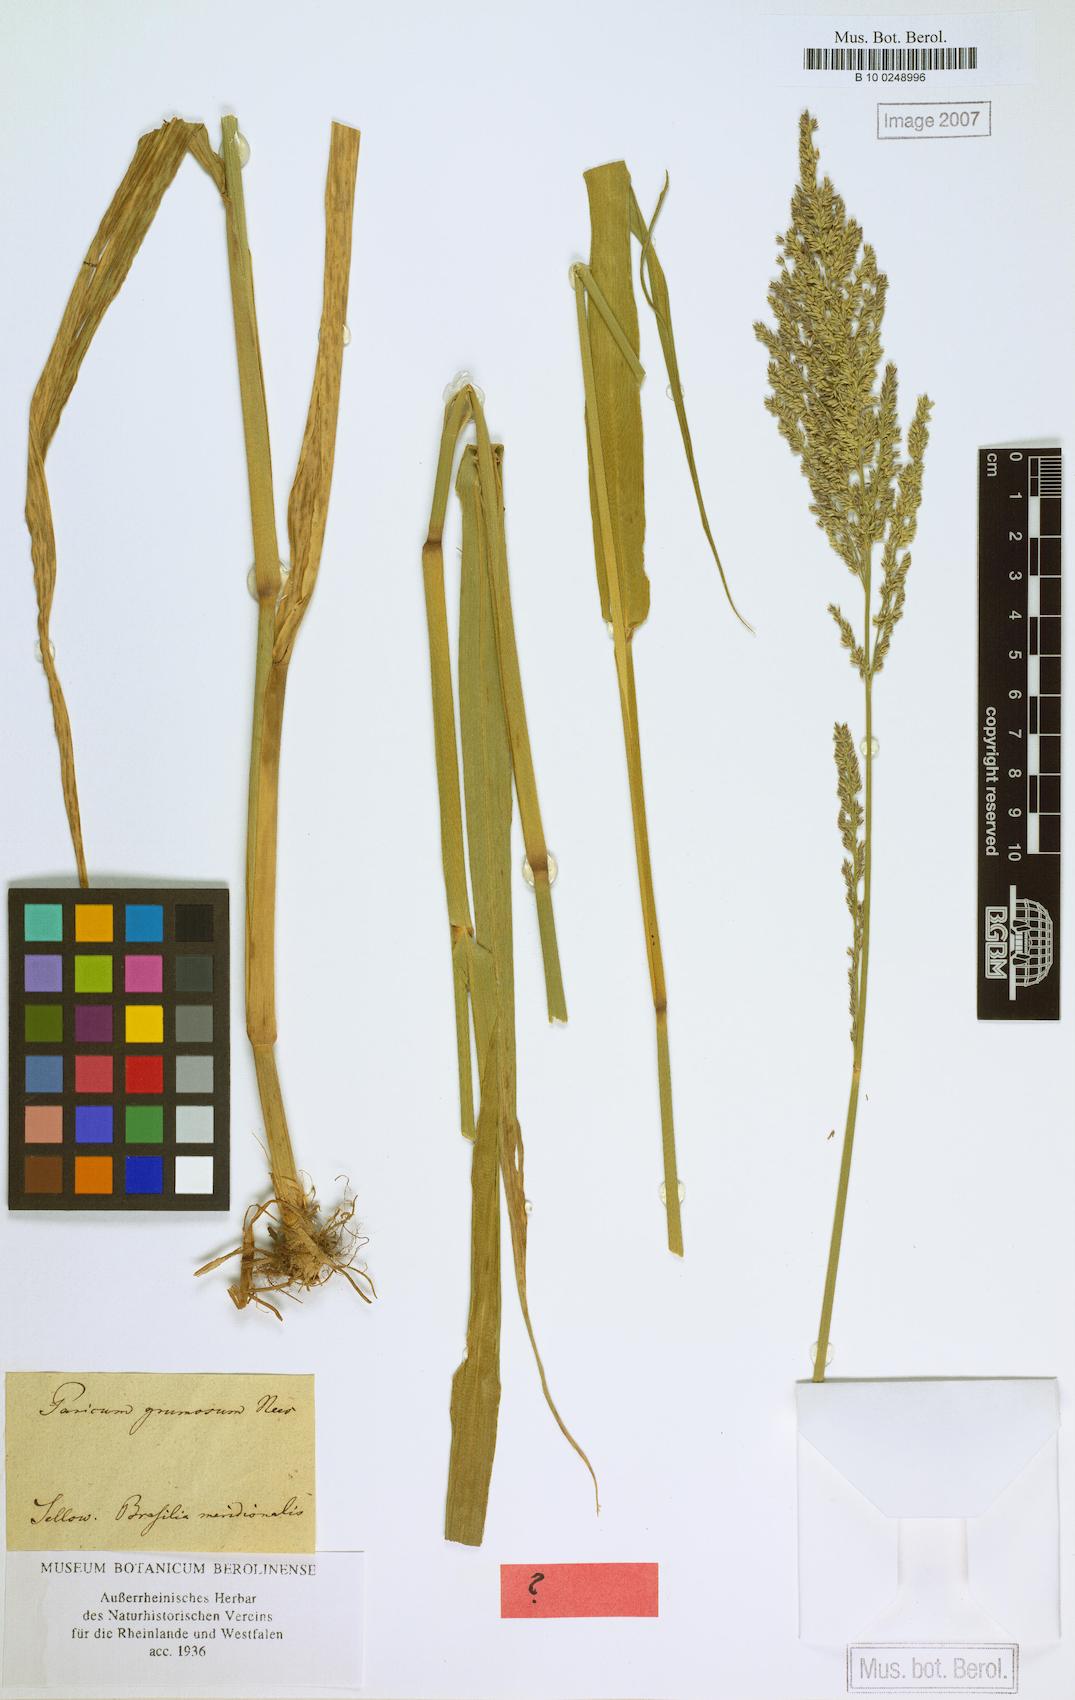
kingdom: Plantae
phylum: Tracheophyta
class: Liliopsida
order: Poales
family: Poaceae
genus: Hymenachne
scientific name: Hymenachne grumosa
